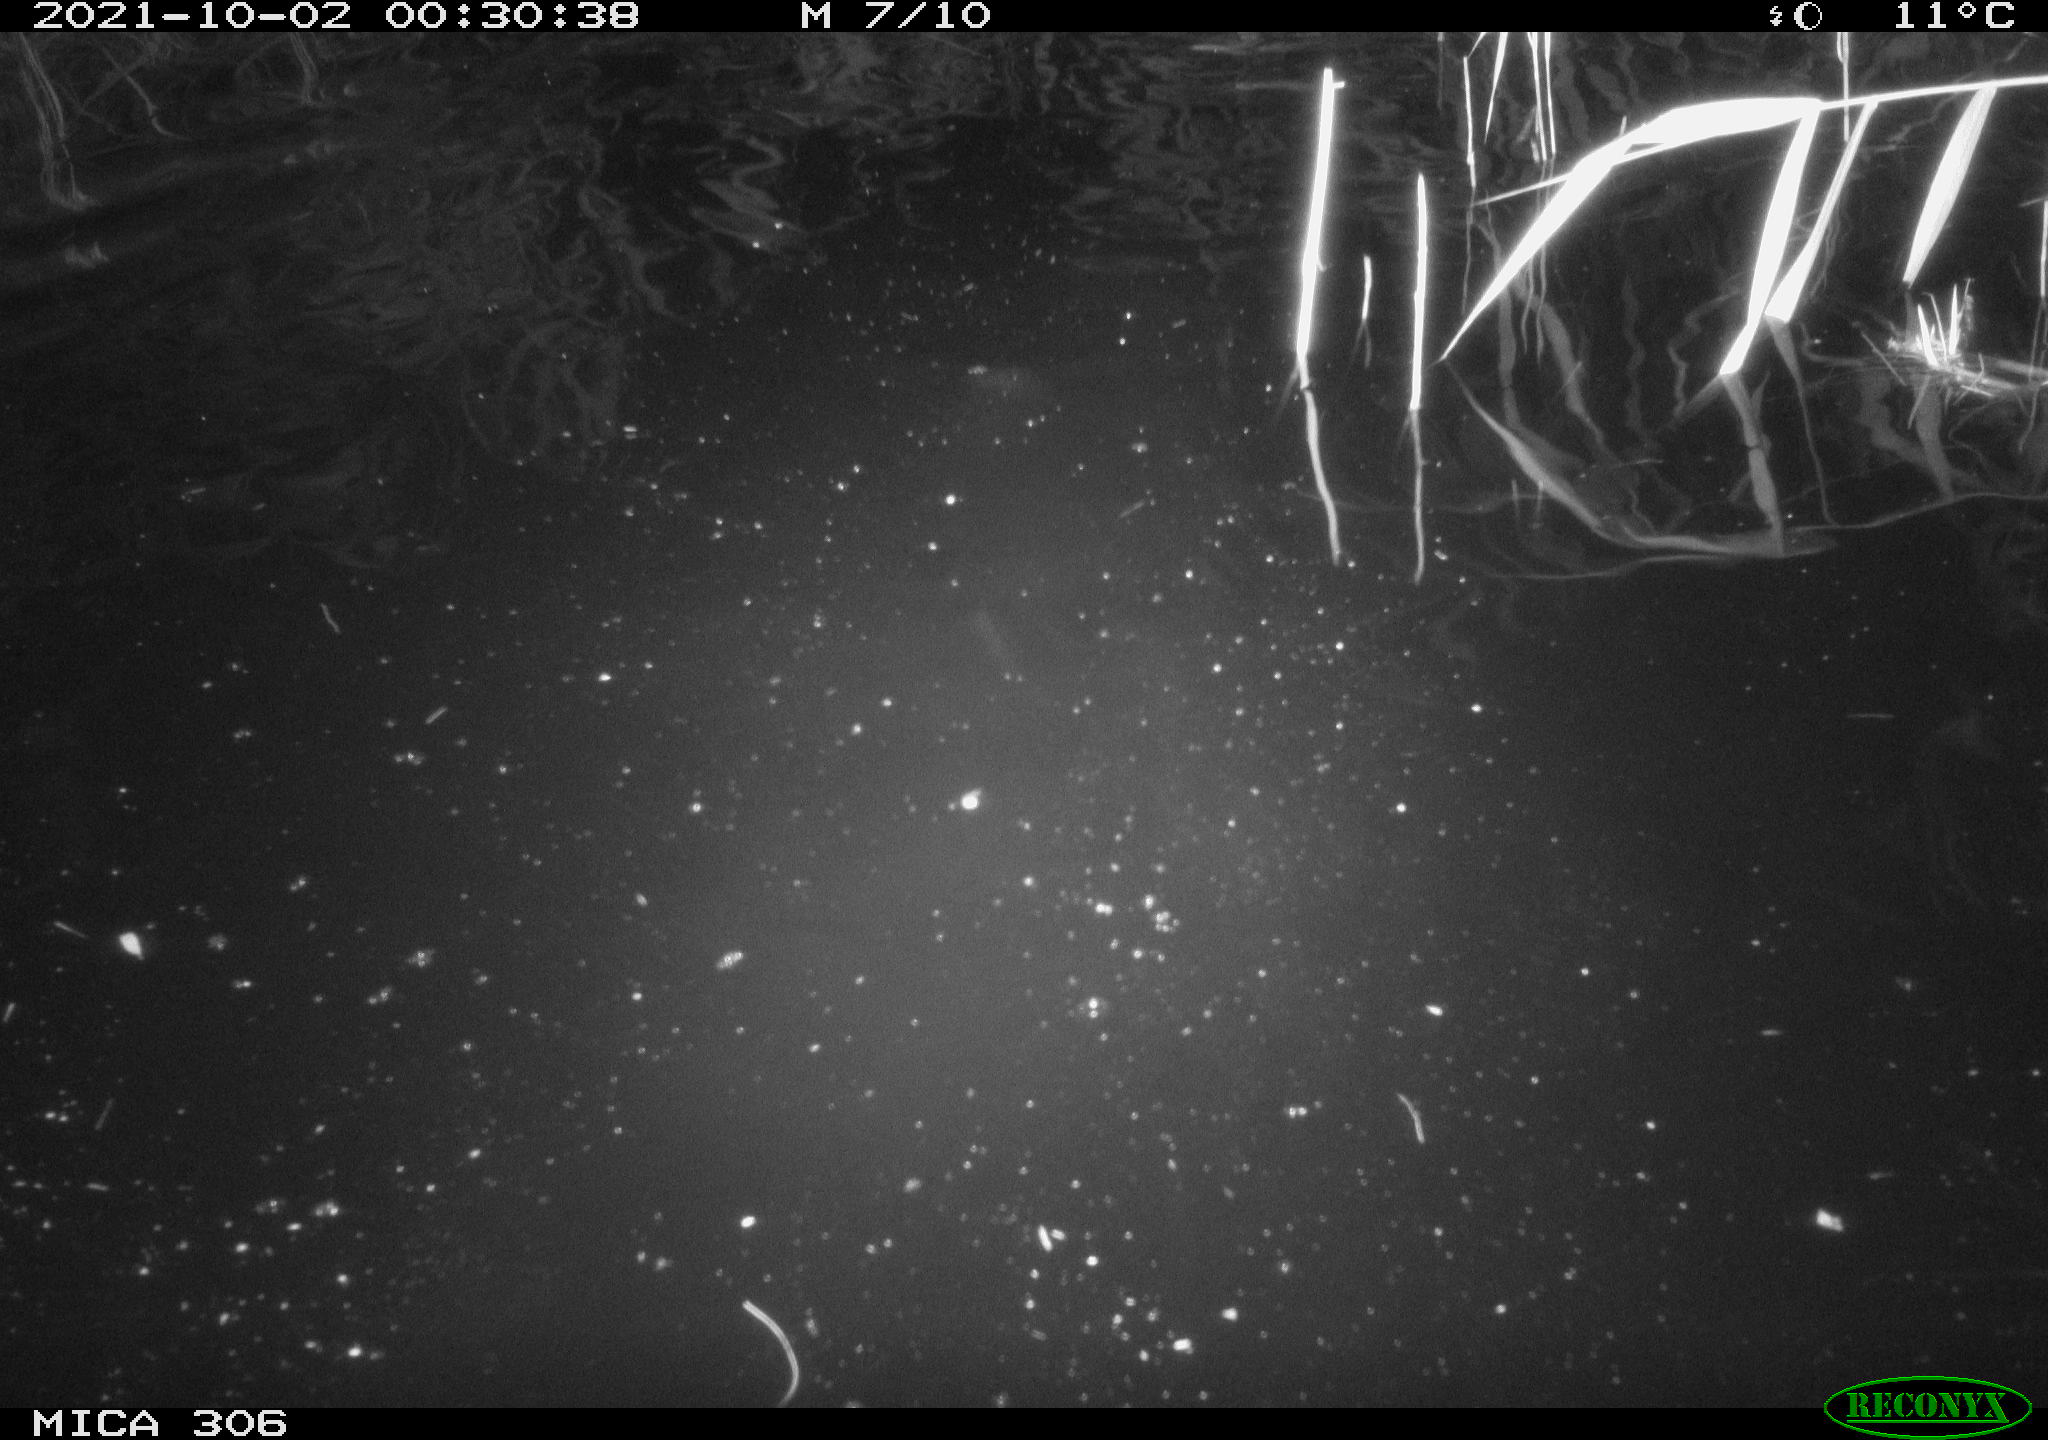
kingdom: Animalia
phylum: Chordata
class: Mammalia
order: Rodentia
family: Cricetidae
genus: Ondatra
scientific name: Ondatra zibethicus
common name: Muskrat
